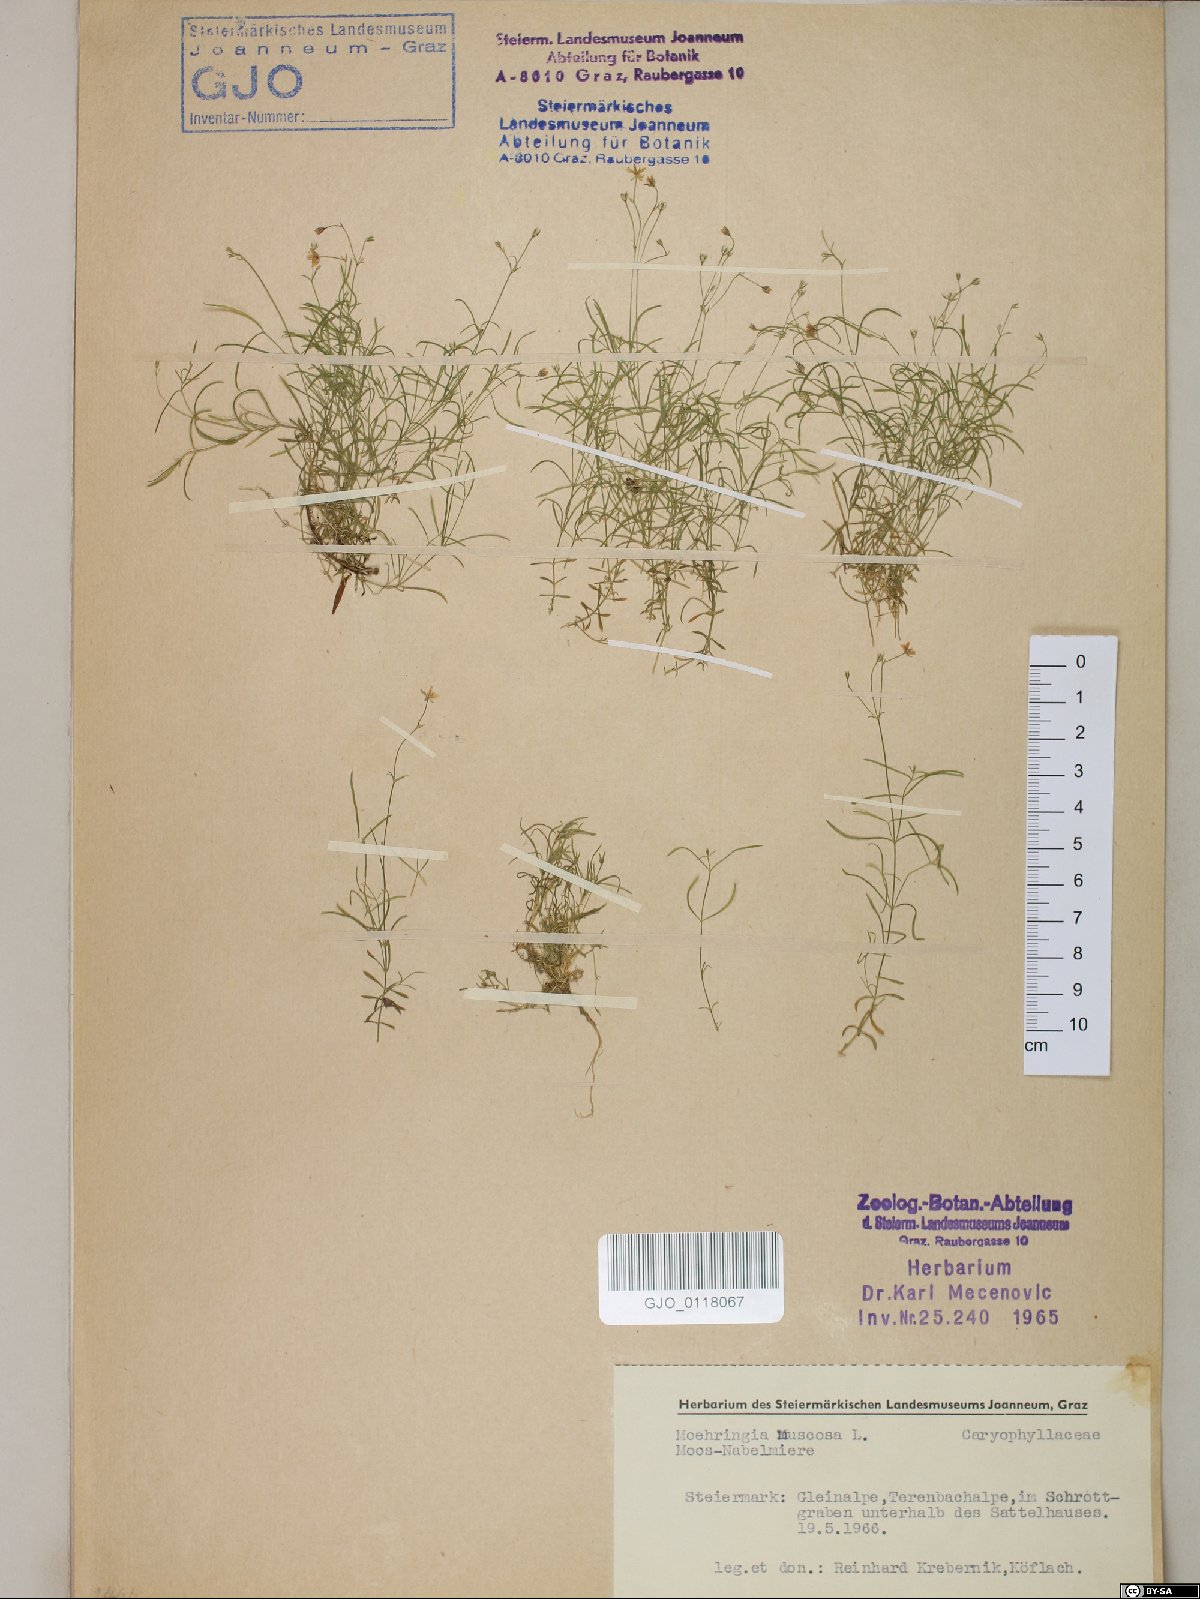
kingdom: Plantae
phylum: Tracheophyta
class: Magnoliopsida
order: Caryophyllales
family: Caryophyllaceae
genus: Moehringia
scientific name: Moehringia muscosa
